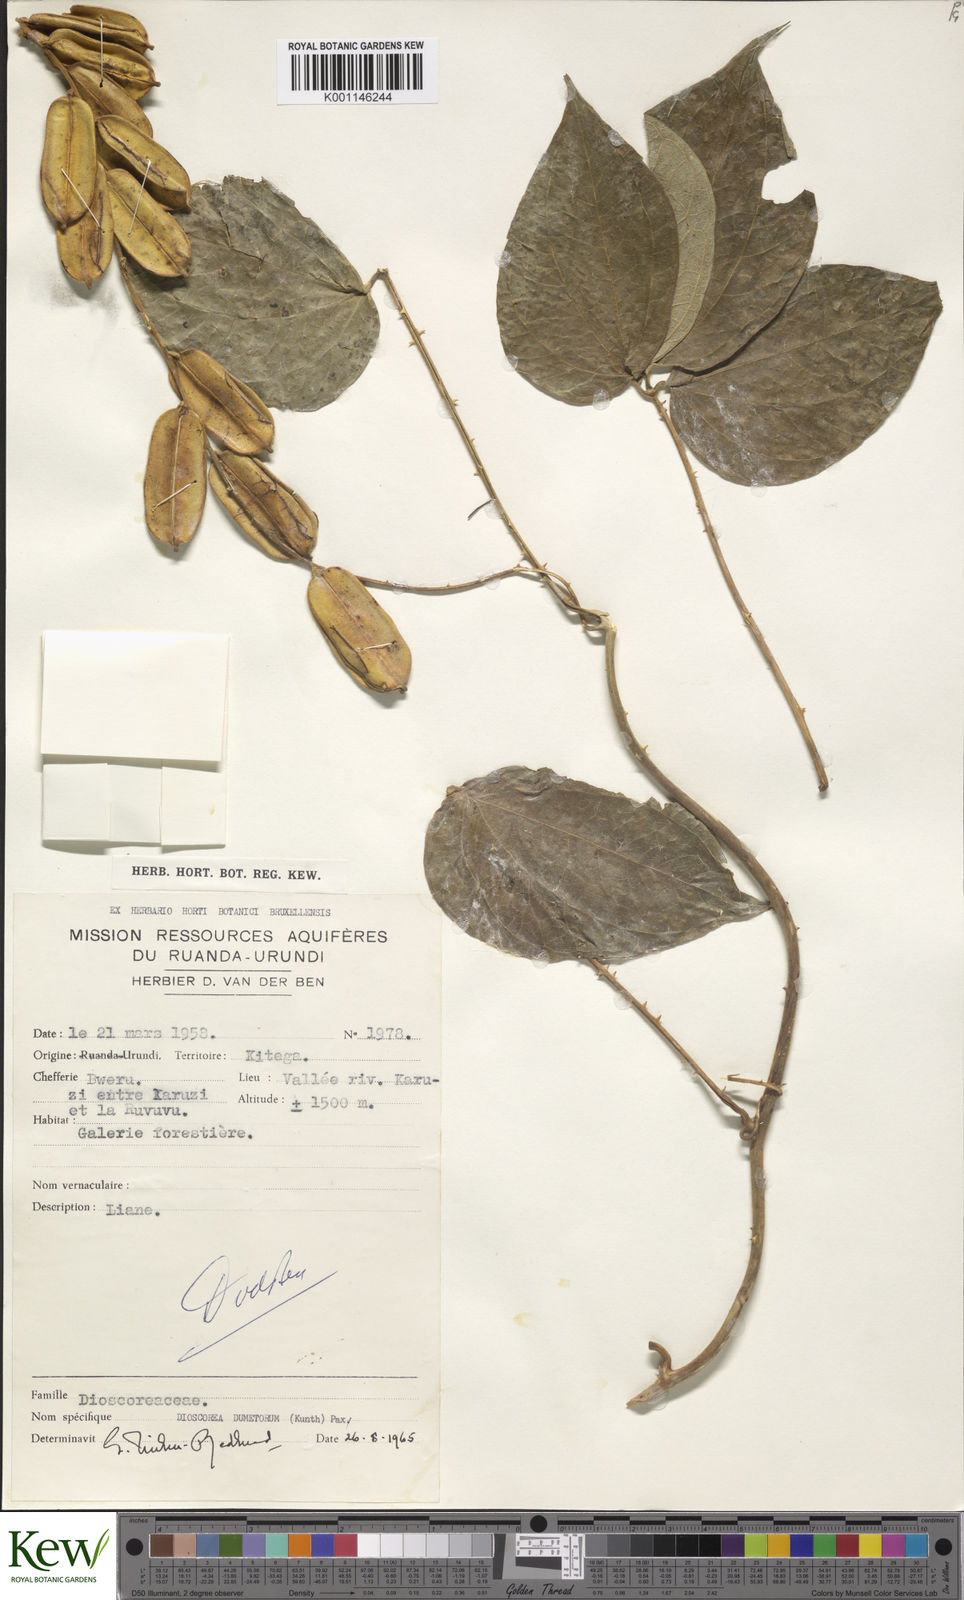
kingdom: Plantae
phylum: Tracheophyta
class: Liliopsida
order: Dioscoreales
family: Dioscoreaceae
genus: Dioscorea
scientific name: Dioscorea dumetorum
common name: African bitter yam
